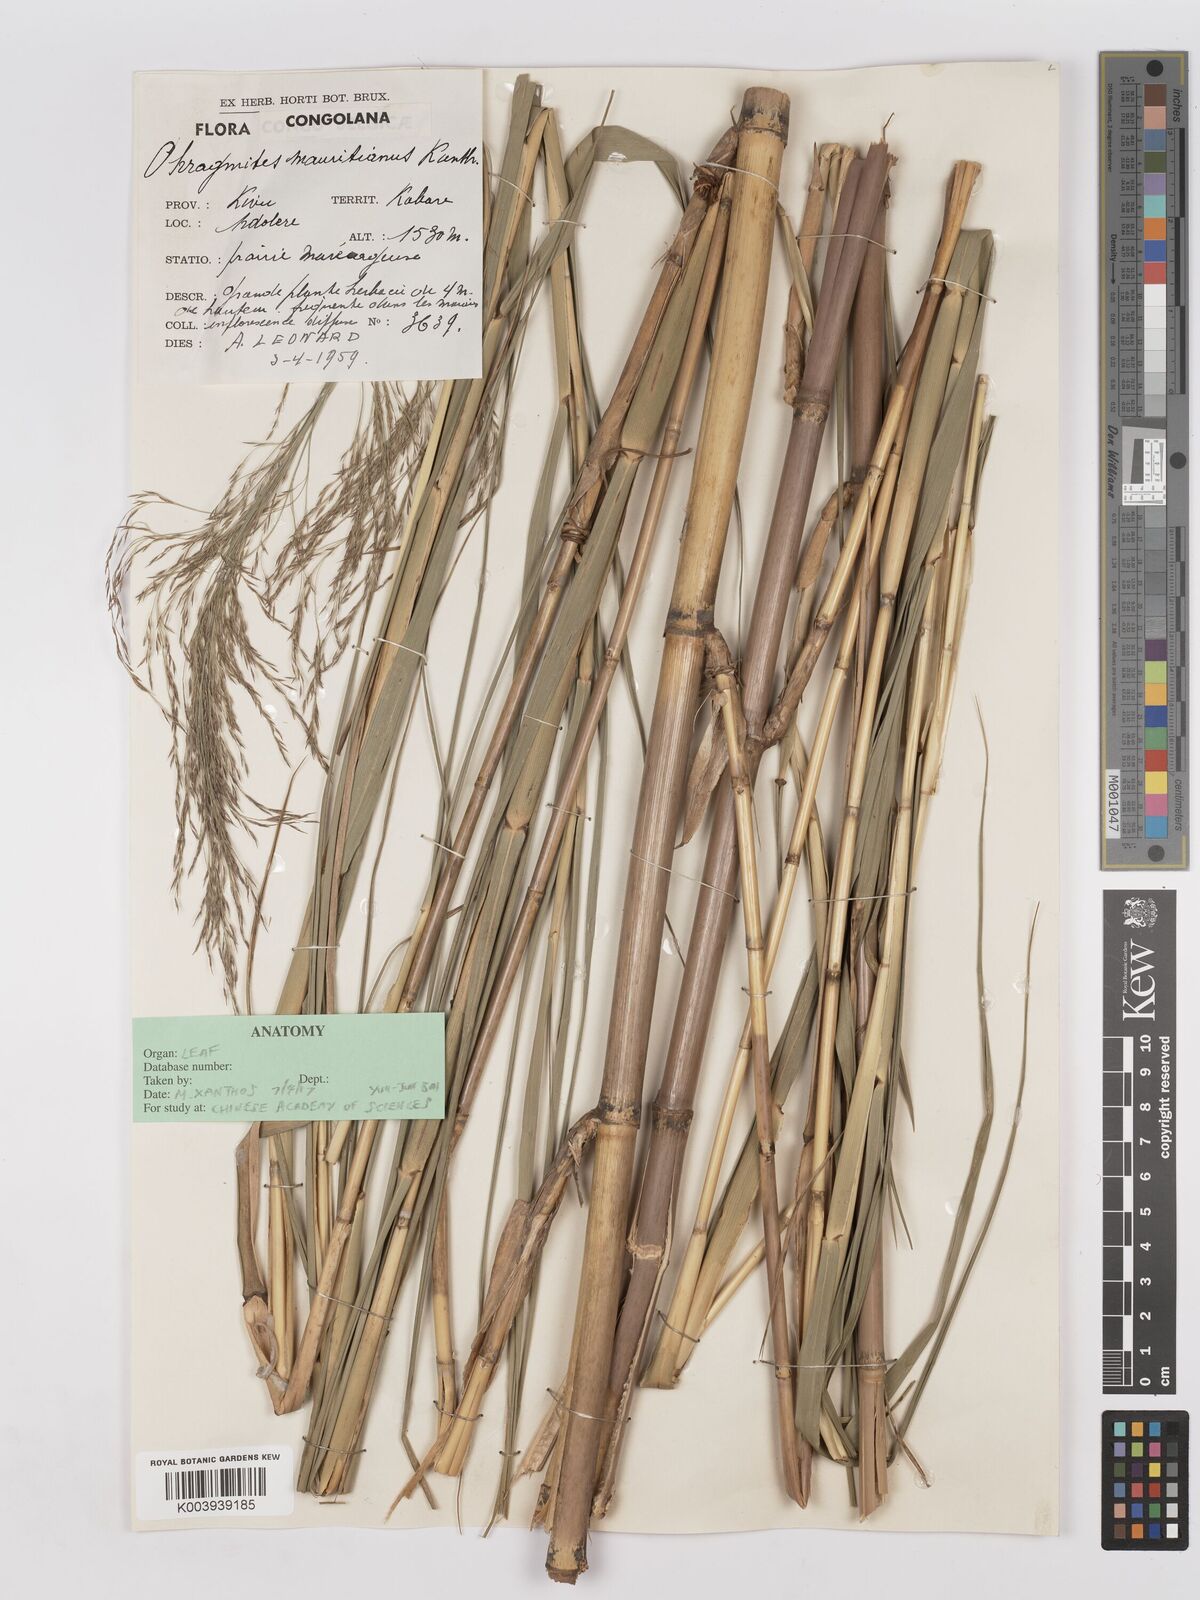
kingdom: Plantae
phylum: Tracheophyta
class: Liliopsida
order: Poales
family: Poaceae
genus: Phragmites
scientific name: Phragmites mauritianus
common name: Reed grass
